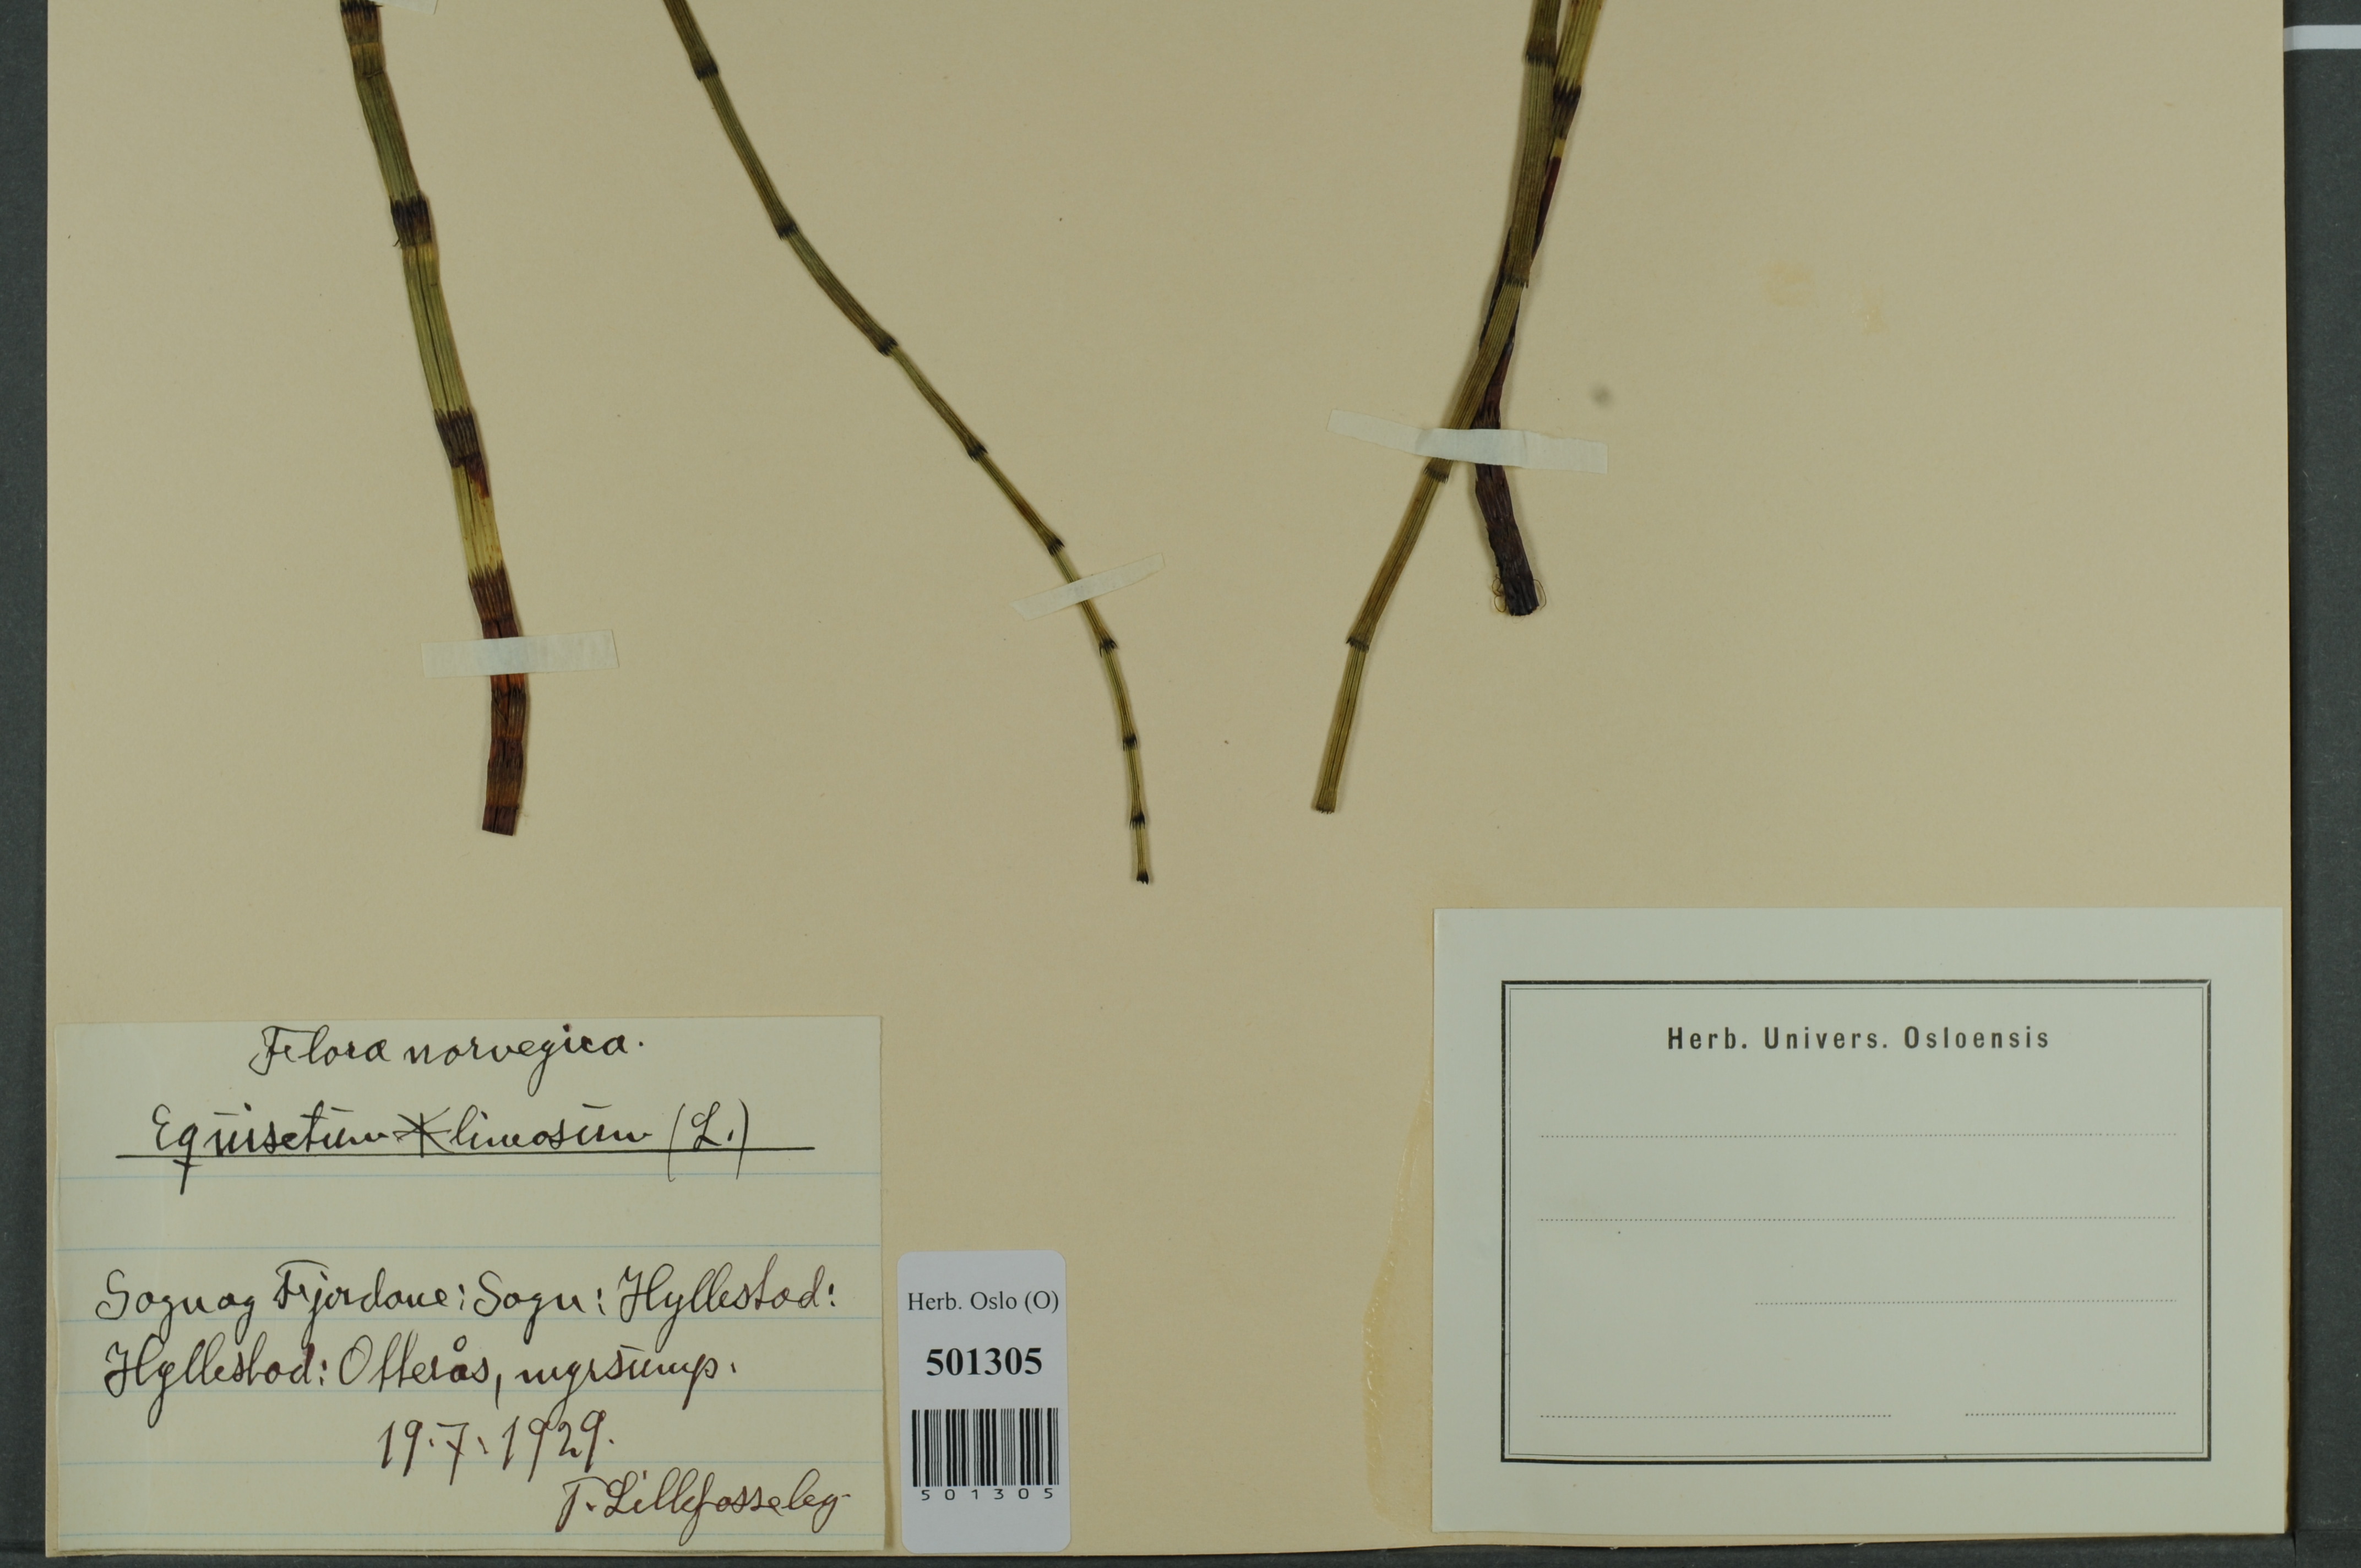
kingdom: Plantae
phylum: Tracheophyta
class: Polypodiopsida
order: Equisetales
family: Equisetaceae
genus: Equisetum
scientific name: Equisetum fluviatile
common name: Water horsetail
